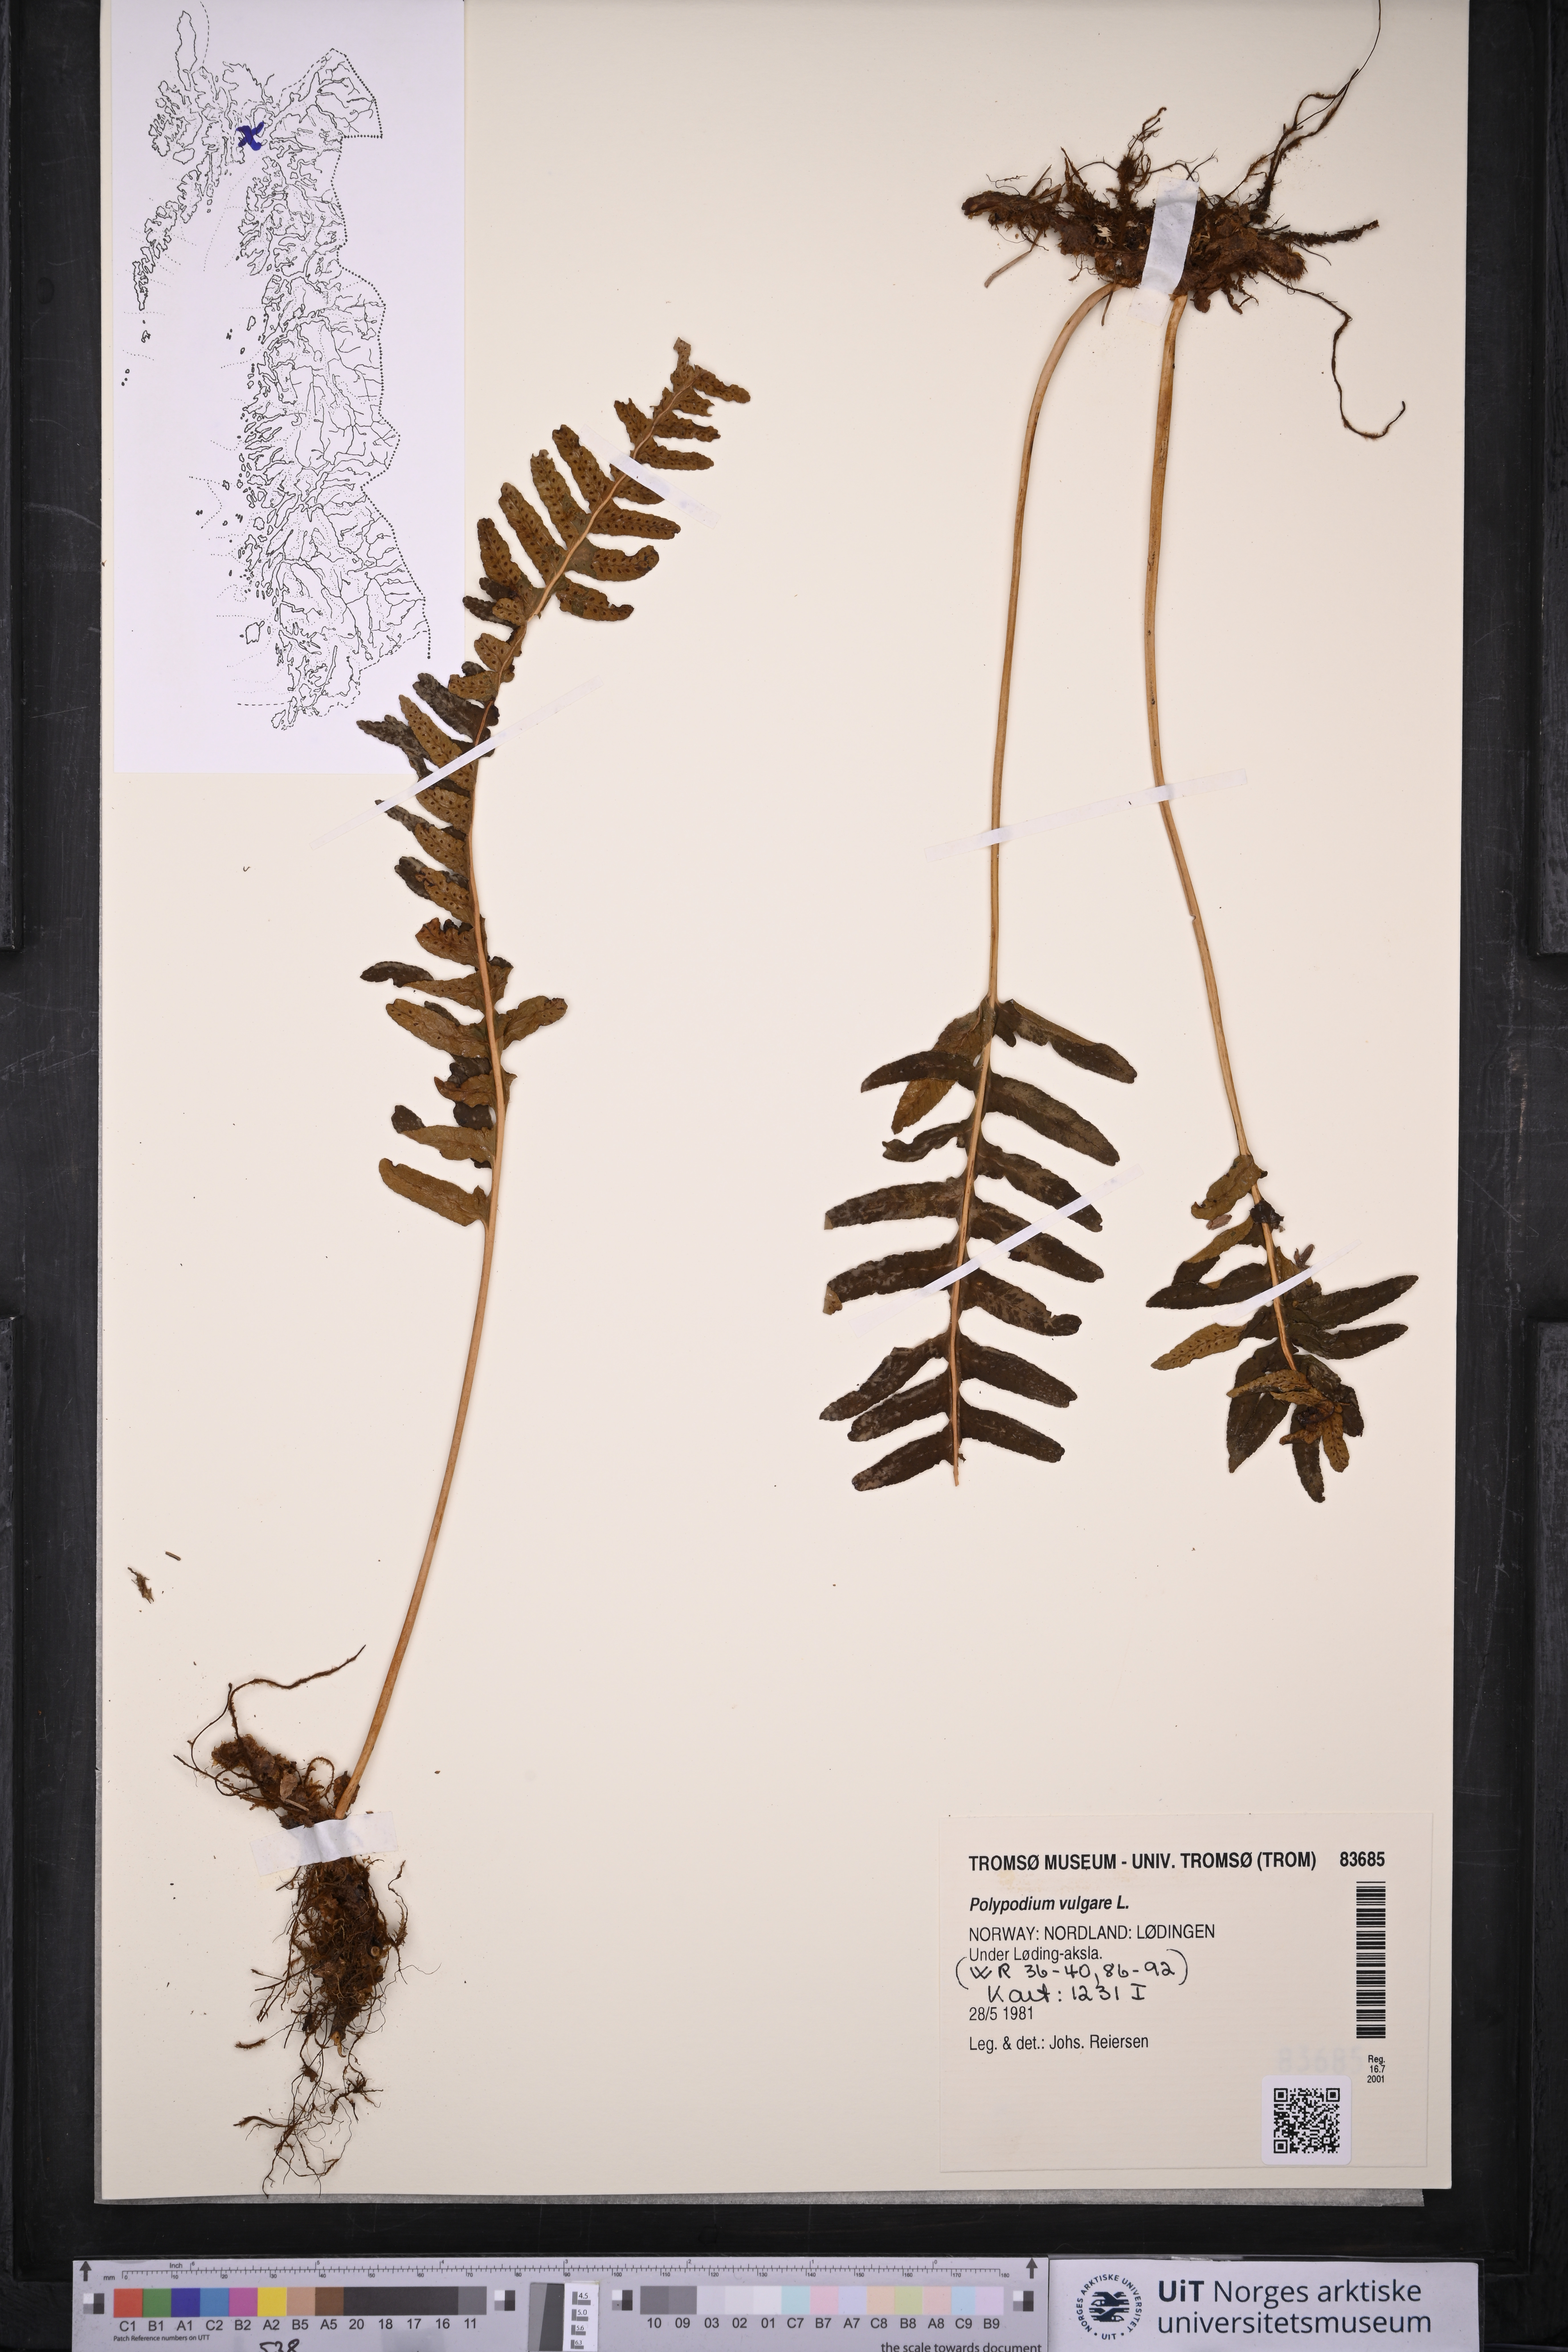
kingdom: Plantae
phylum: Tracheophyta
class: Polypodiopsida
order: Polypodiales
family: Polypodiaceae
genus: Polypodium
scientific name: Polypodium vulgare
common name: Common polypody
